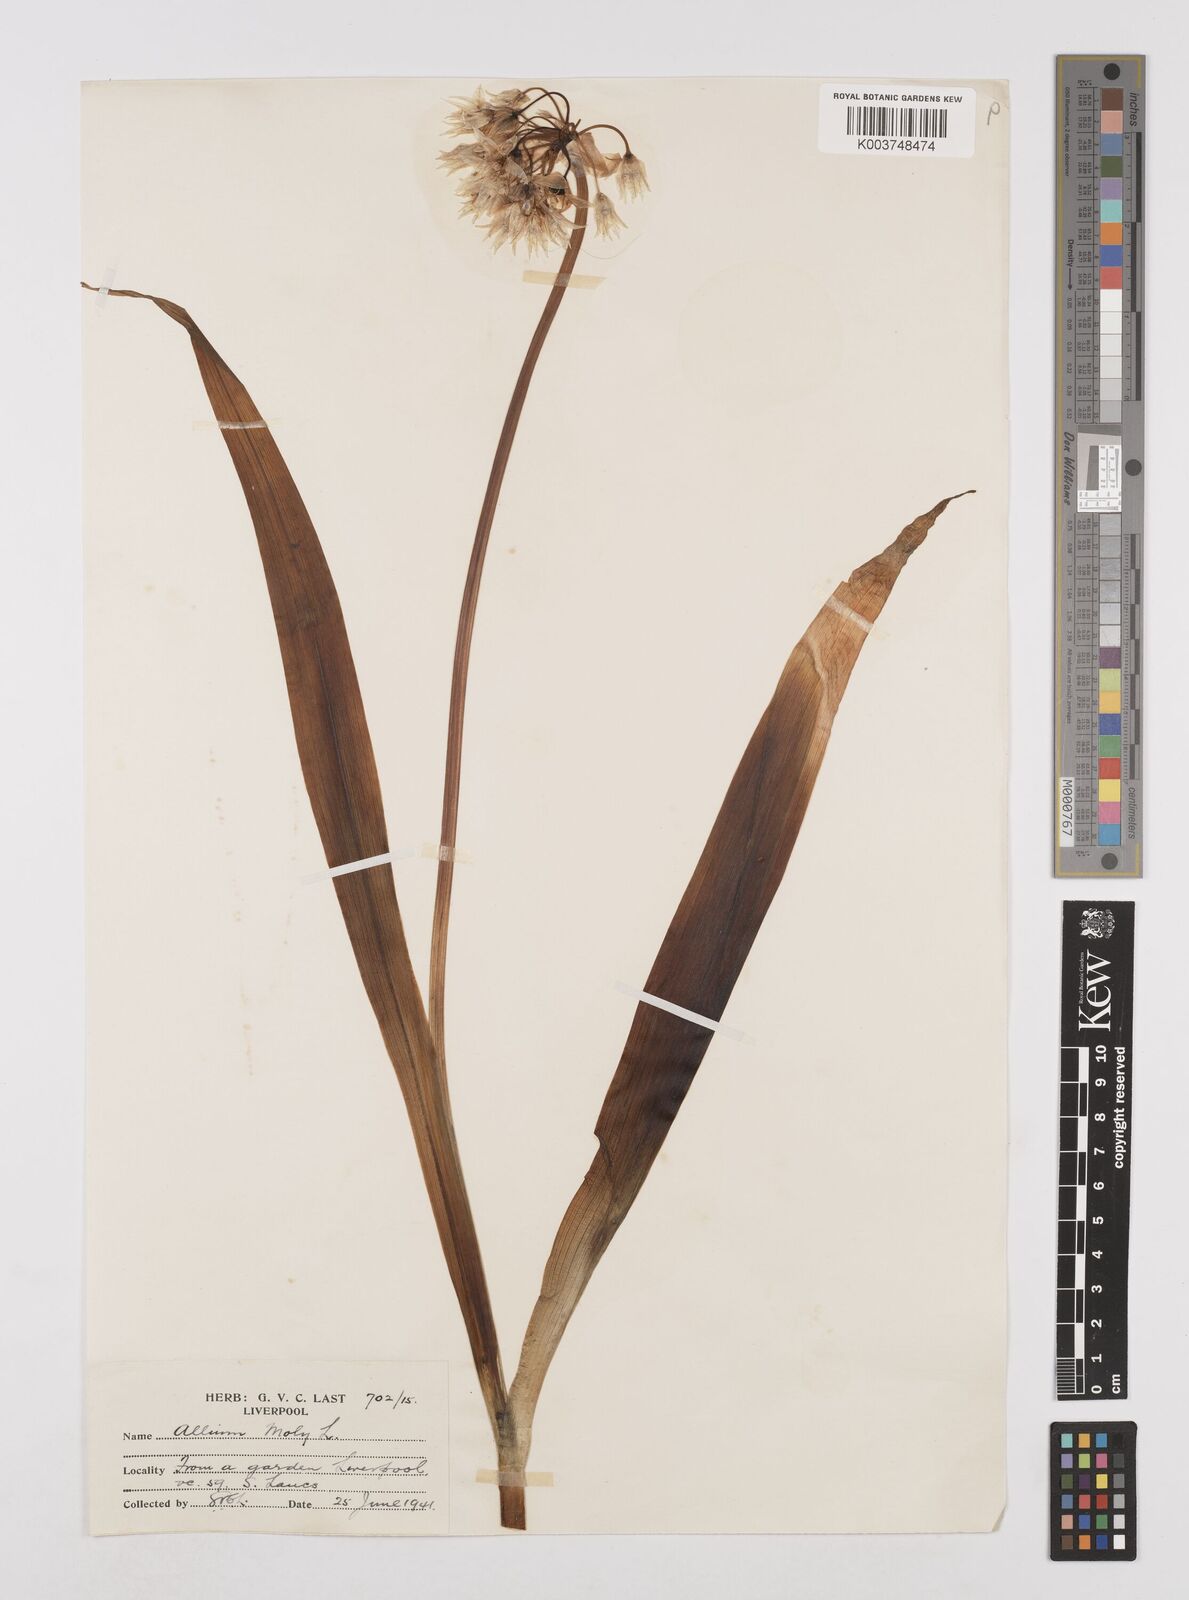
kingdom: Plantae
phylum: Tracheophyta
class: Liliopsida
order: Asparagales
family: Amaryllidaceae
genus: Allium
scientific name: Allium moly
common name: Yellow garlic
